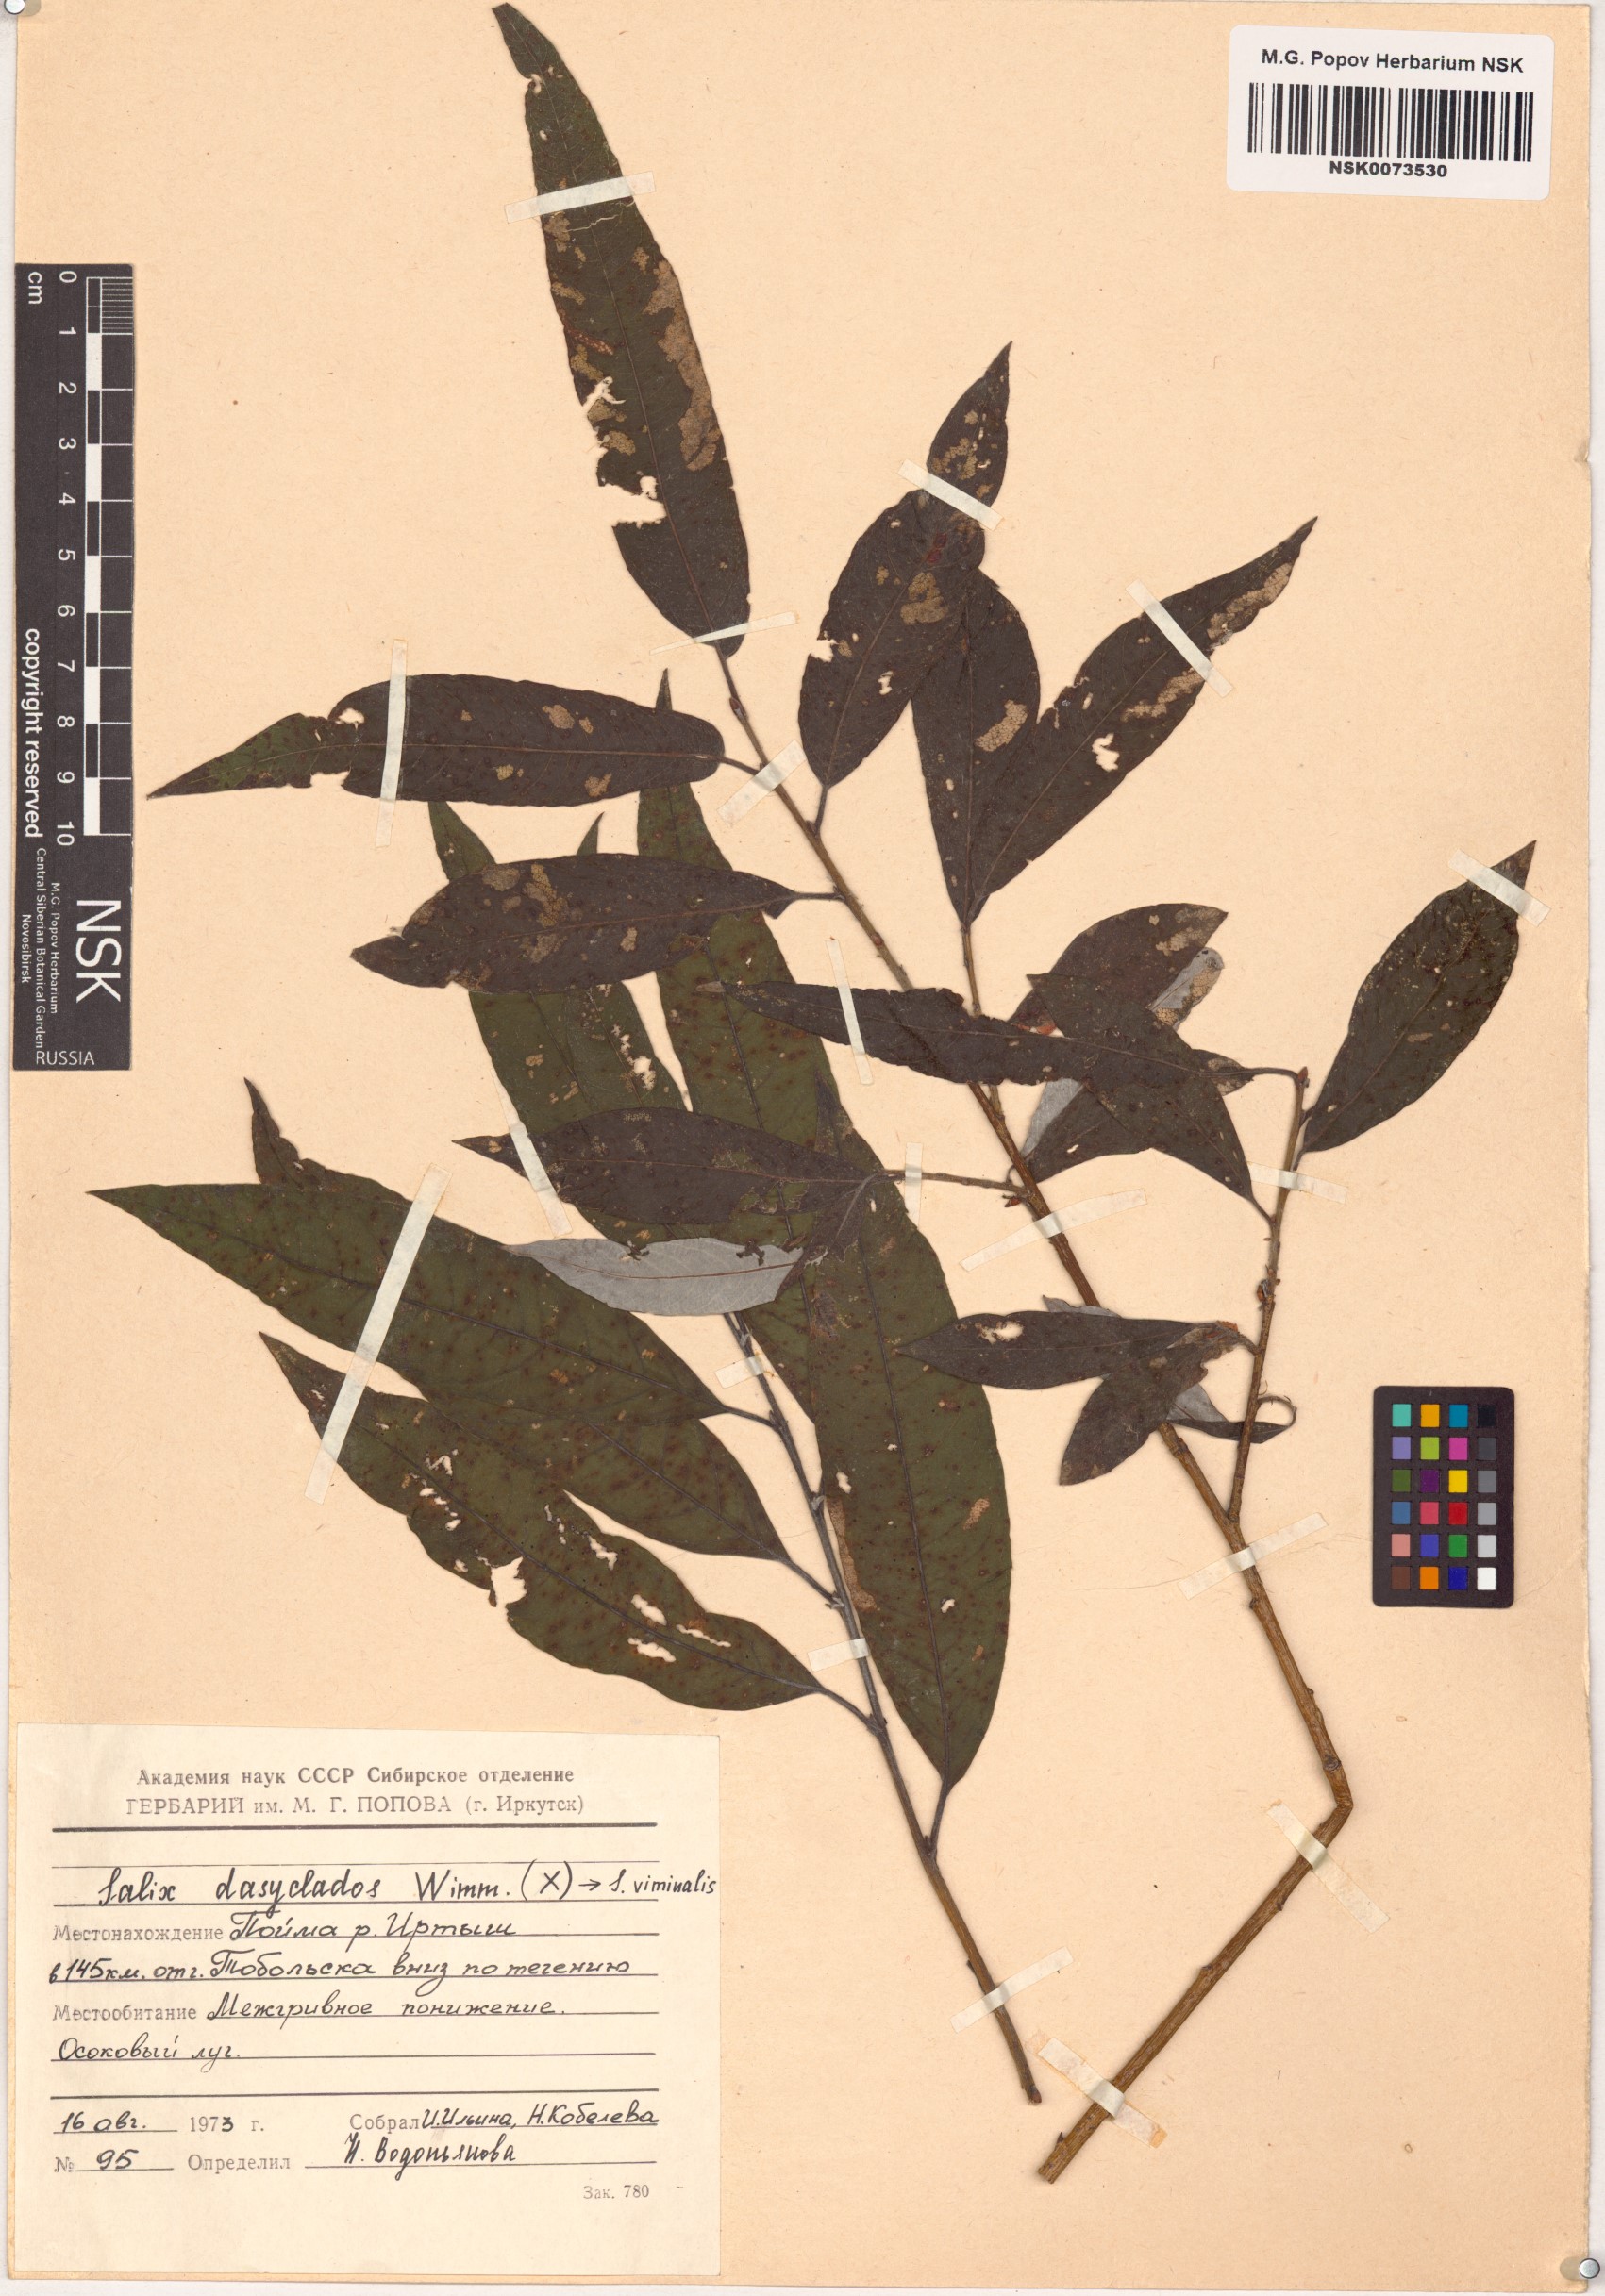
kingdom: Plantae
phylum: Tracheophyta
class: Magnoliopsida
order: Malpighiales
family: Salicaceae
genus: Salix
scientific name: Salix gmelinii
